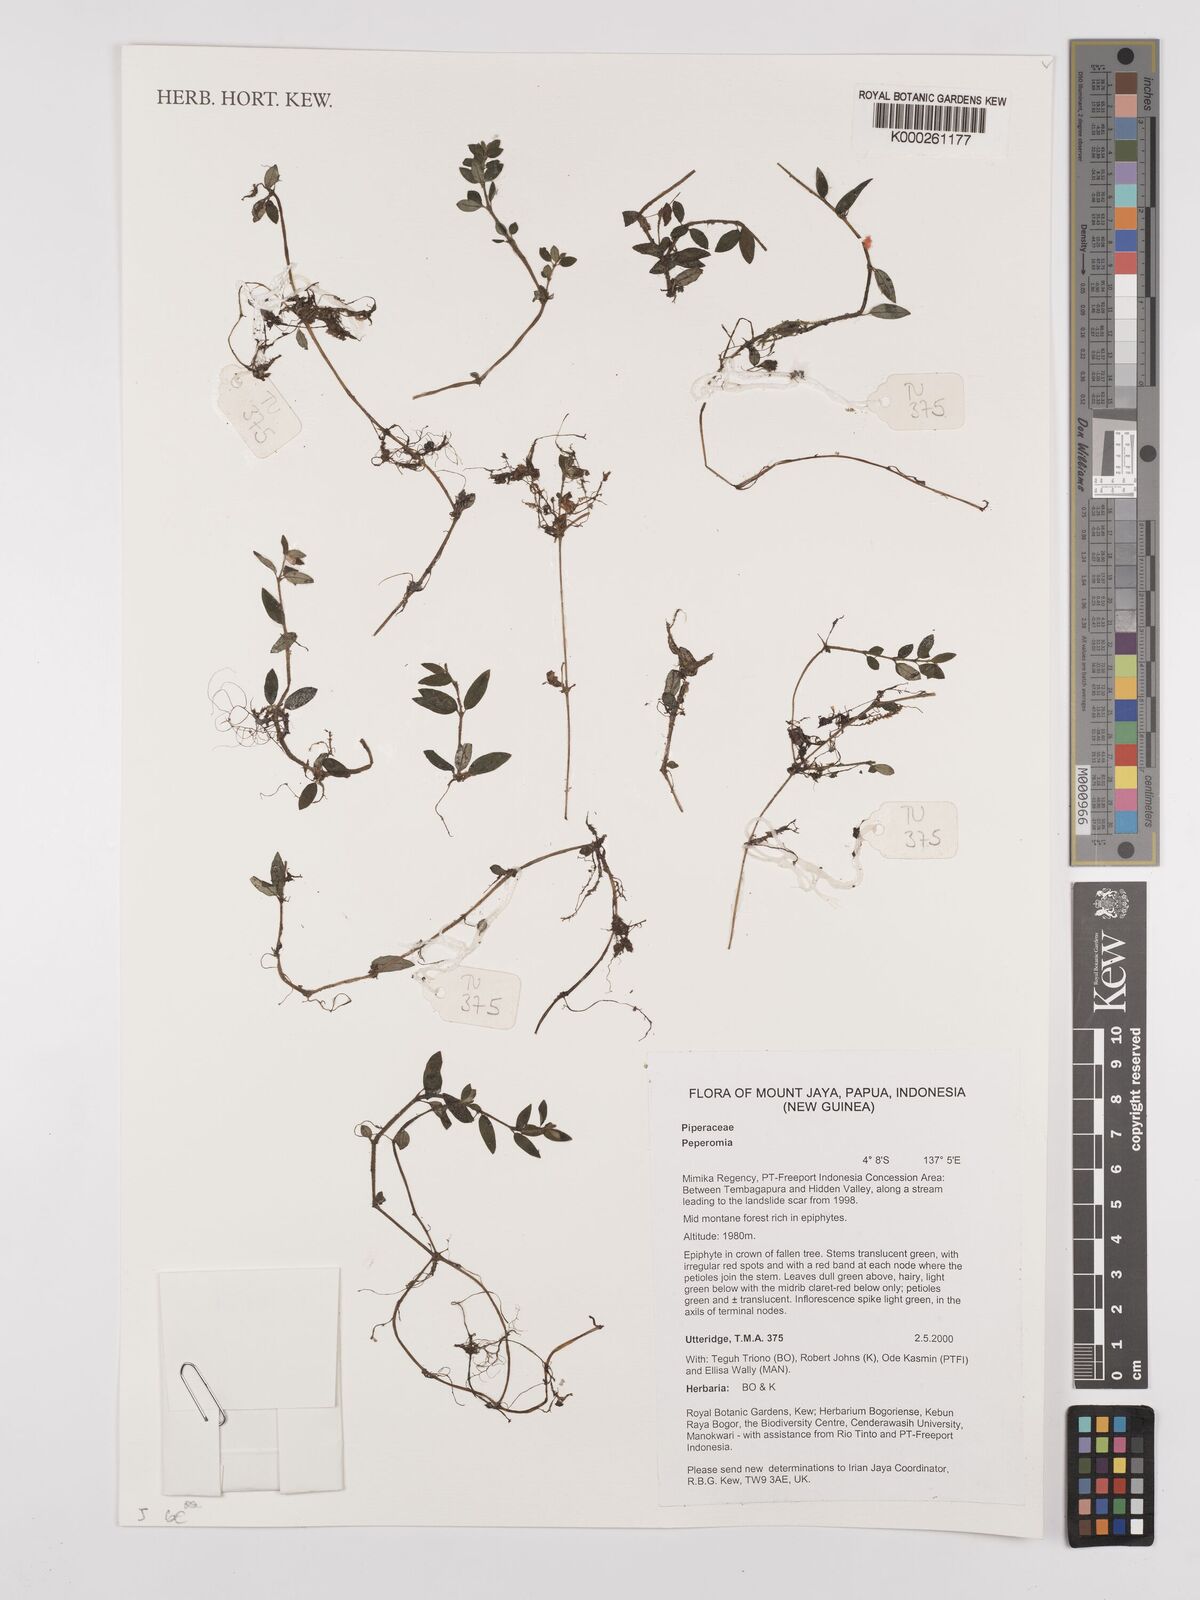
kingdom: Plantae
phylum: Tracheophyta
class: Magnoliopsida
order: Piperales
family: Piperaceae
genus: Peperomia
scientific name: Peperomia
